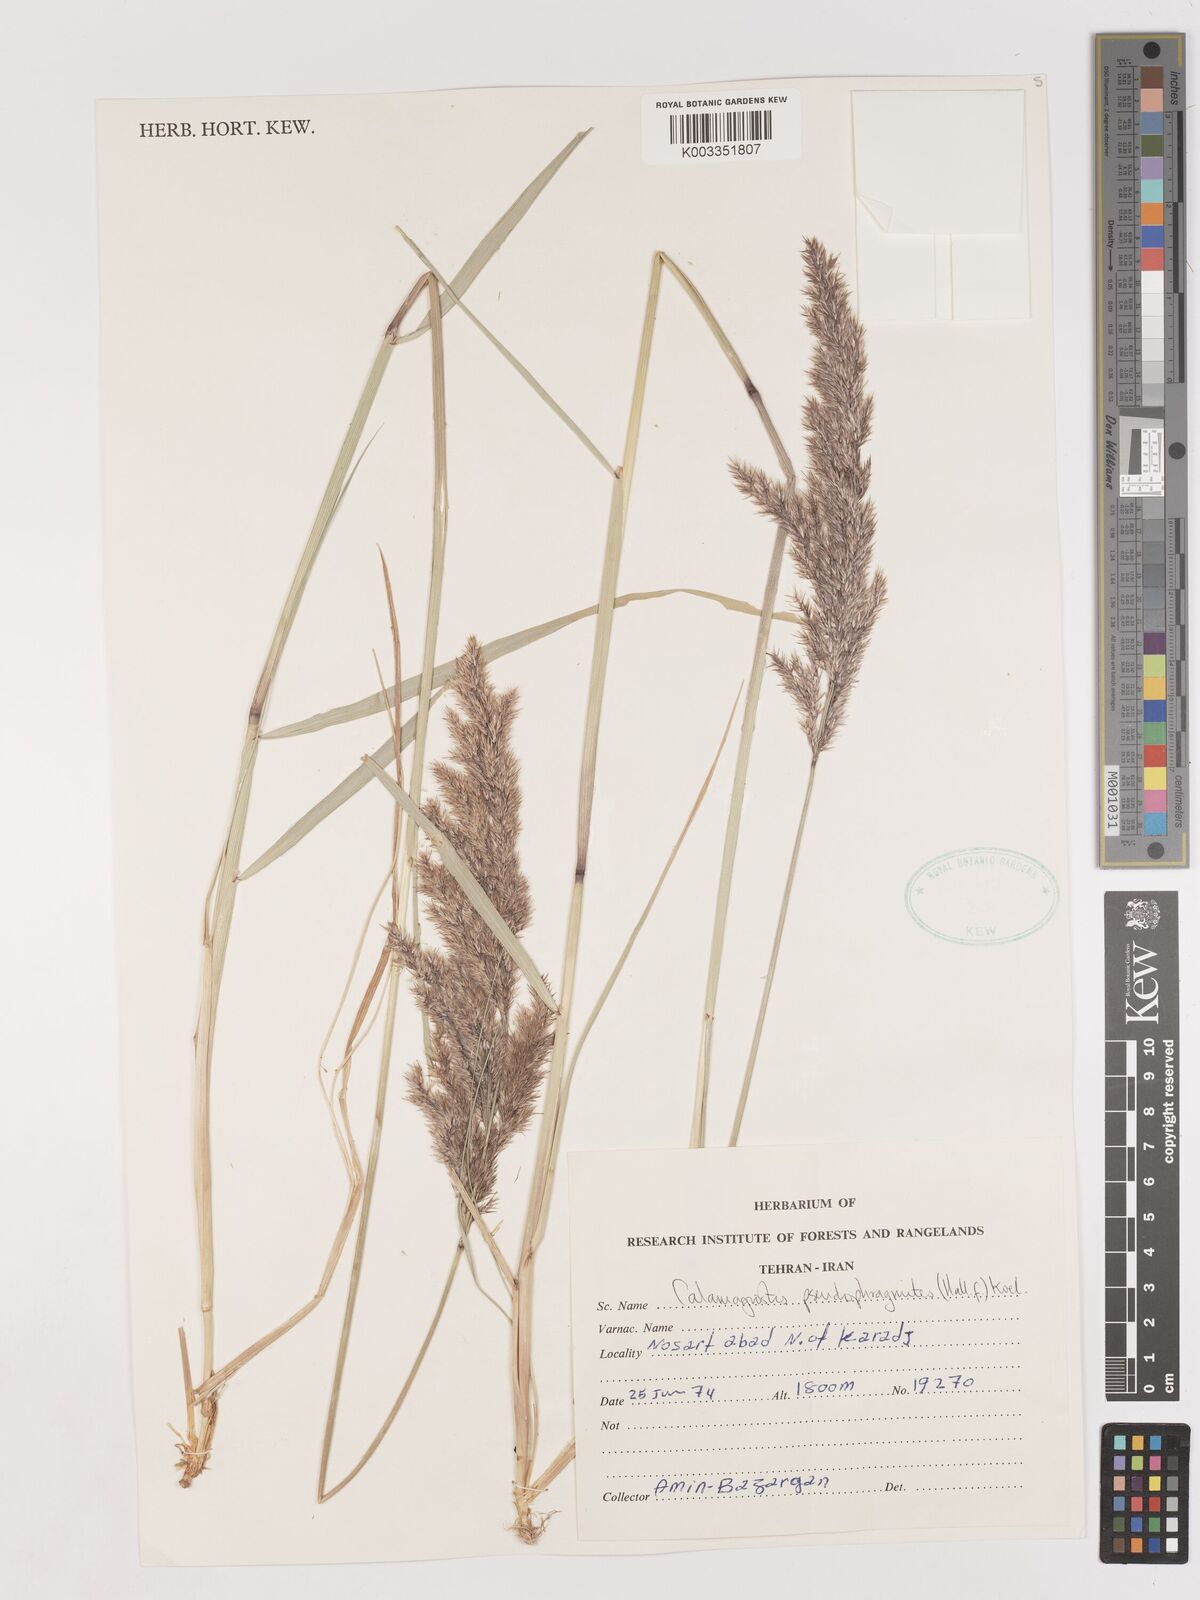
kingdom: Plantae
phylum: Tracheophyta
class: Liliopsida
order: Poales
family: Poaceae
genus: Calamagrostis
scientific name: Calamagrostis pseudophragmites
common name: Coastal small-reed
